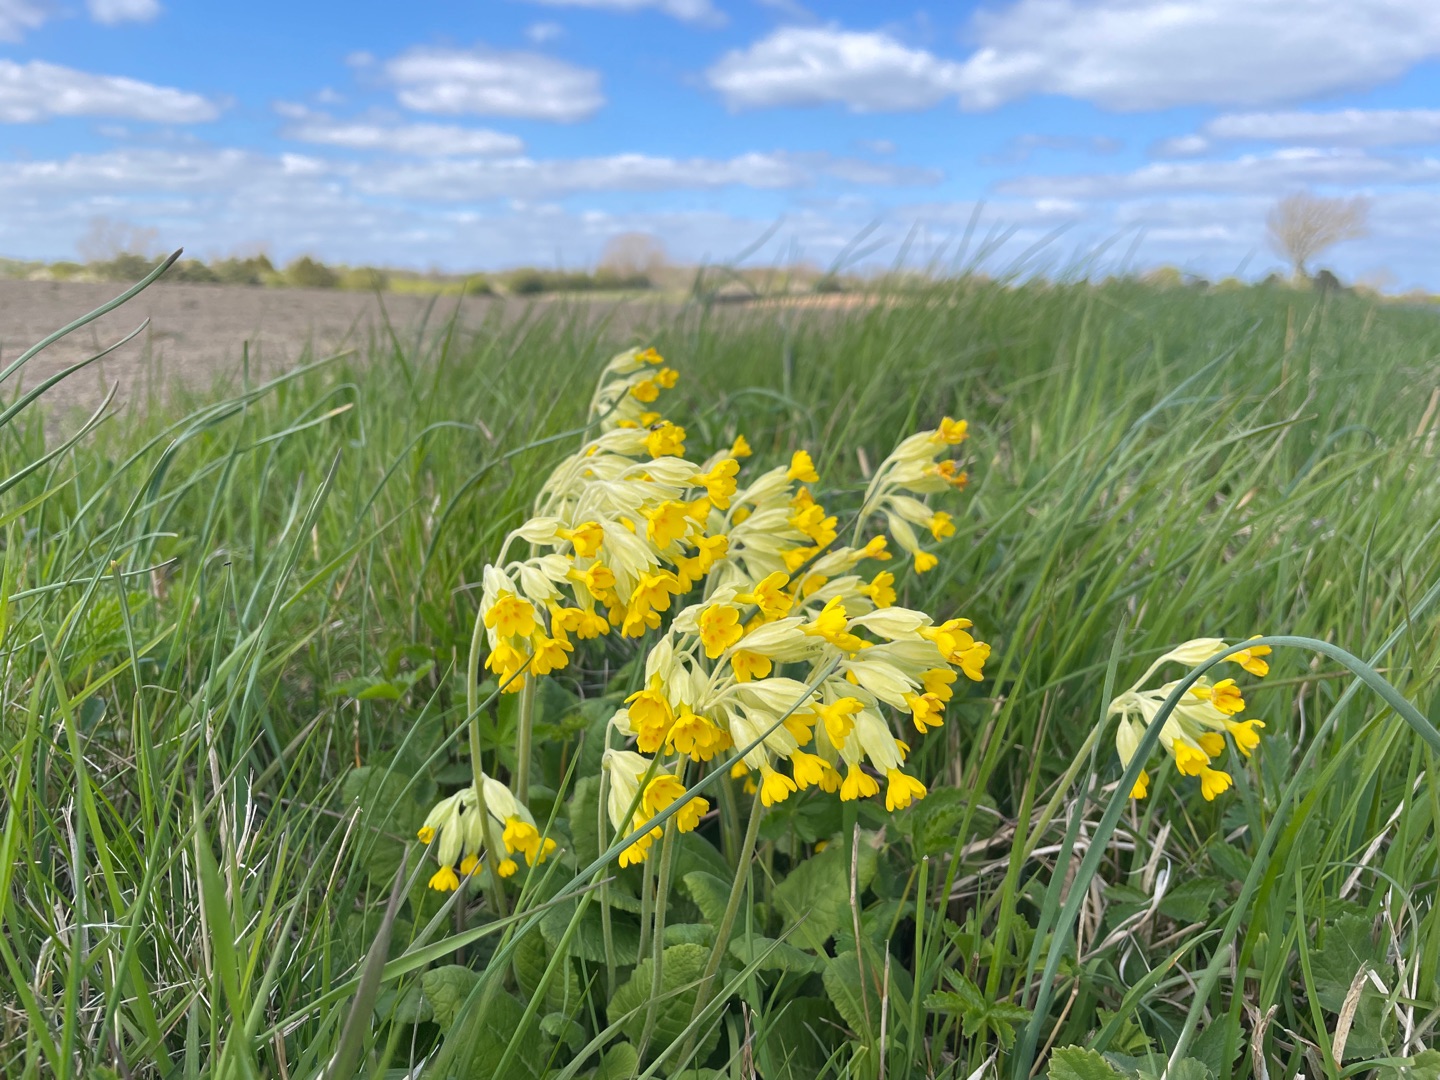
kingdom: Plantae
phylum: Tracheophyta
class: Magnoliopsida
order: Ericales
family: Primulaceae
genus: Primula
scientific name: Primula veris
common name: Hulkravet kodriver
